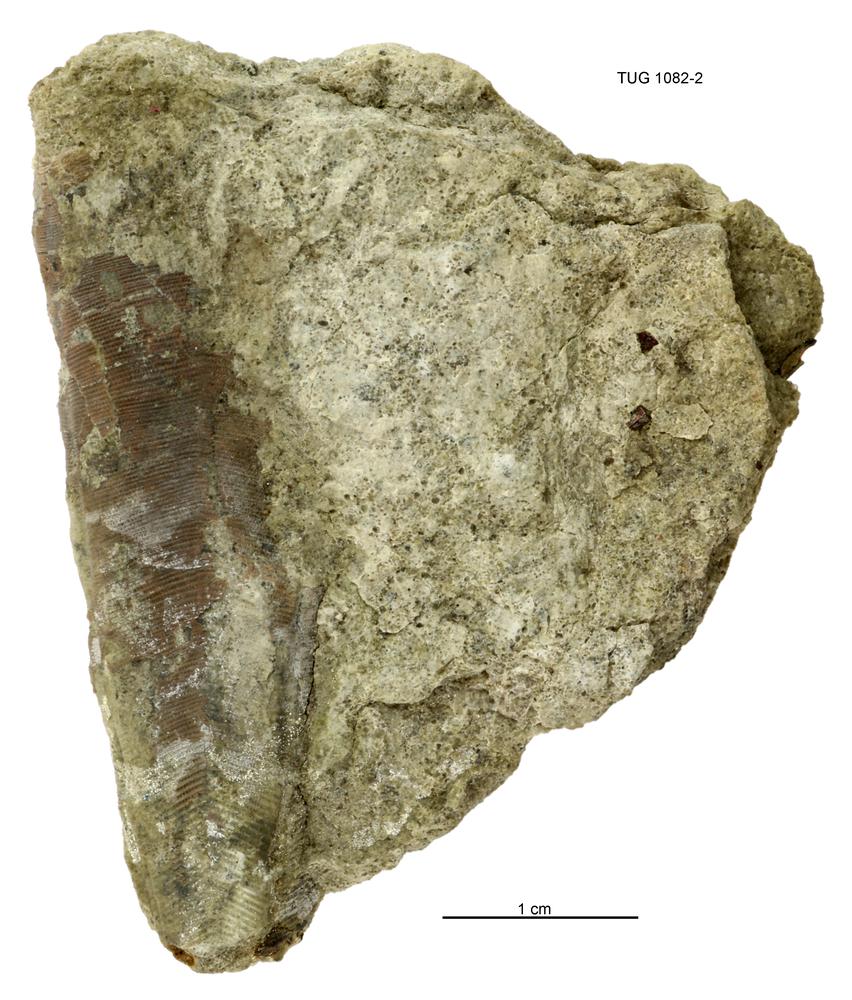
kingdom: Animalia
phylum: Cnidaria
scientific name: Cnidaria
